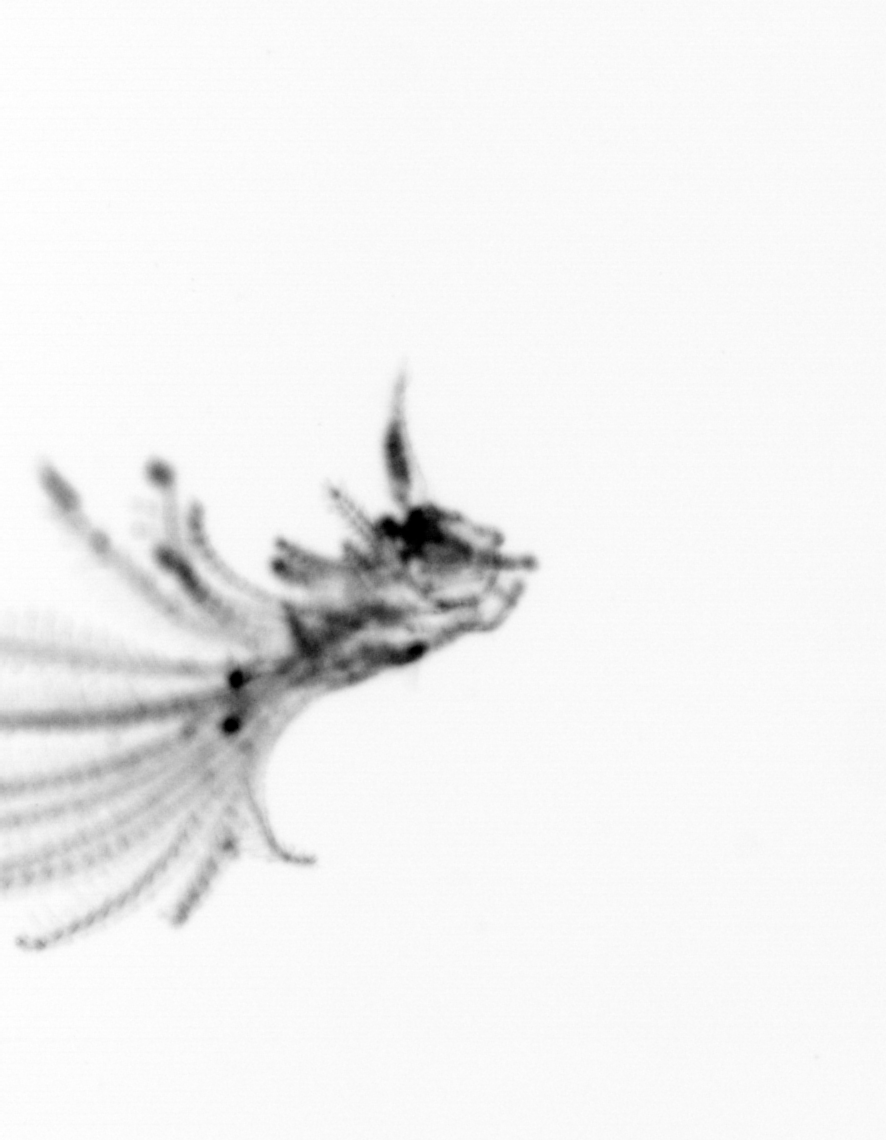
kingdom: Animalia
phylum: Arthropoda
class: Maxillopoda
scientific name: Maxillopoda
